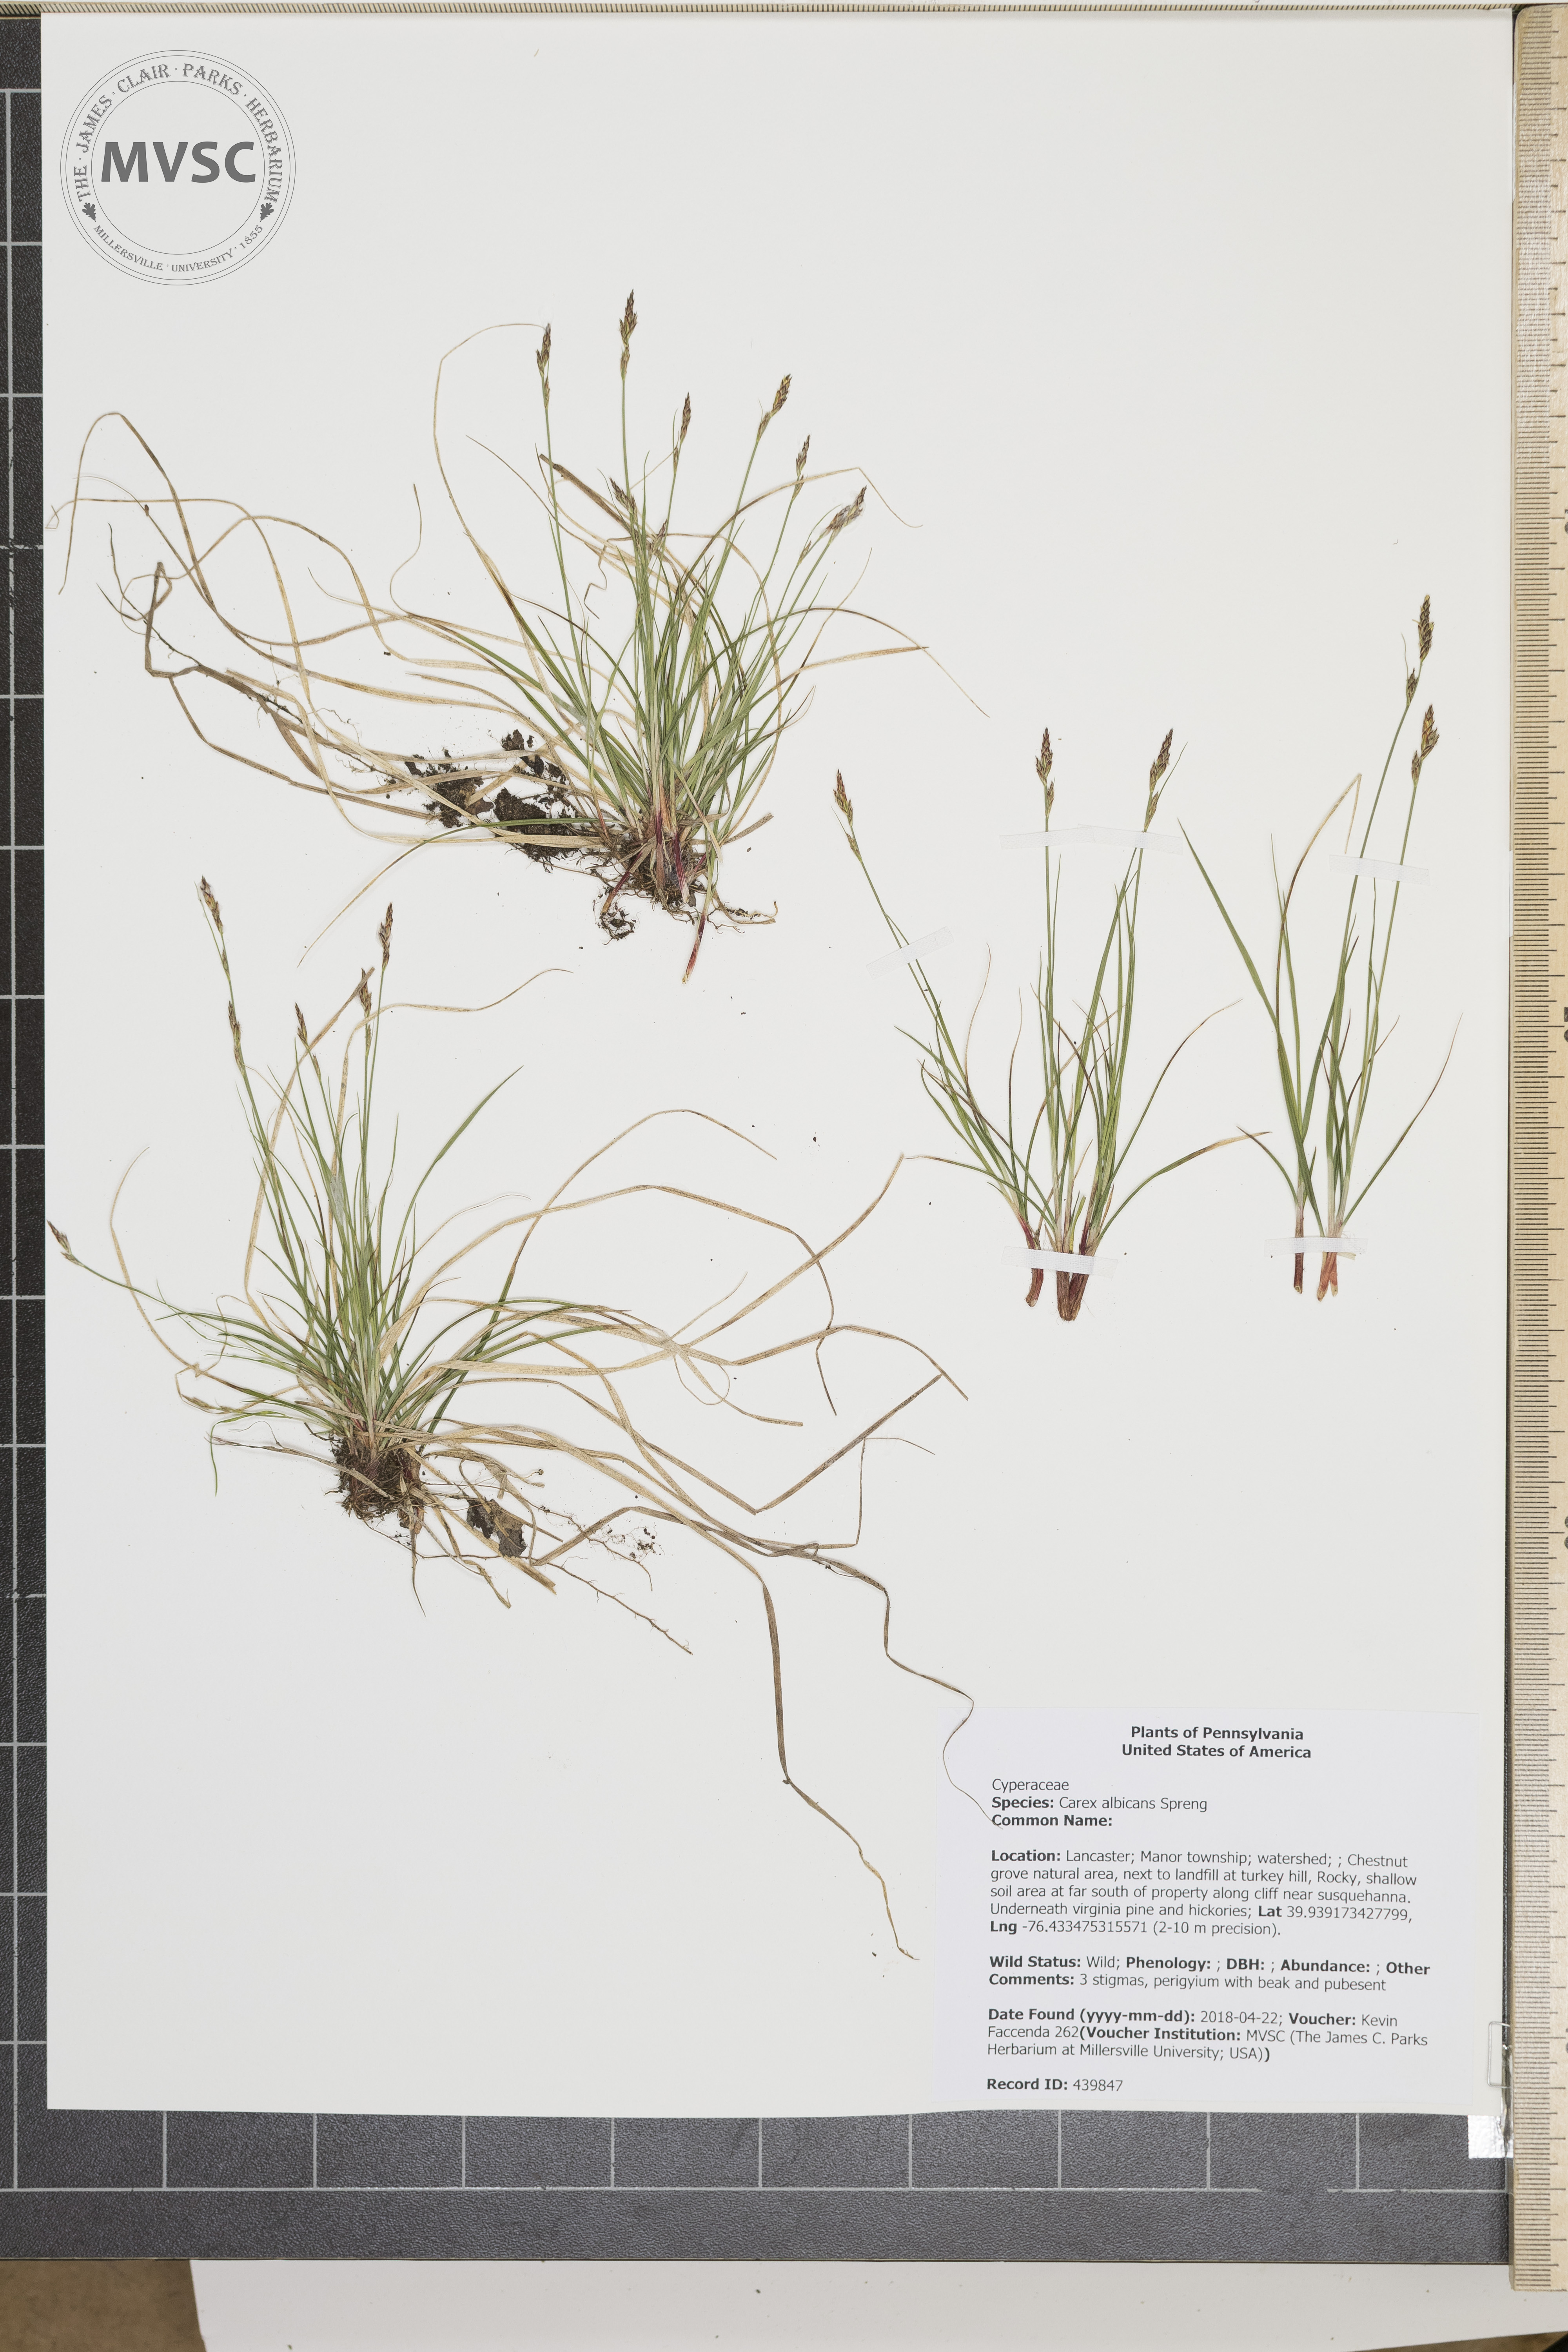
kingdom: Plantae
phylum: Tracheophyta
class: Liliopsida
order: Poales
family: Cyperaceae
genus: Carex
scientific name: Carex albicans
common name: Bellow-beaked sedge
